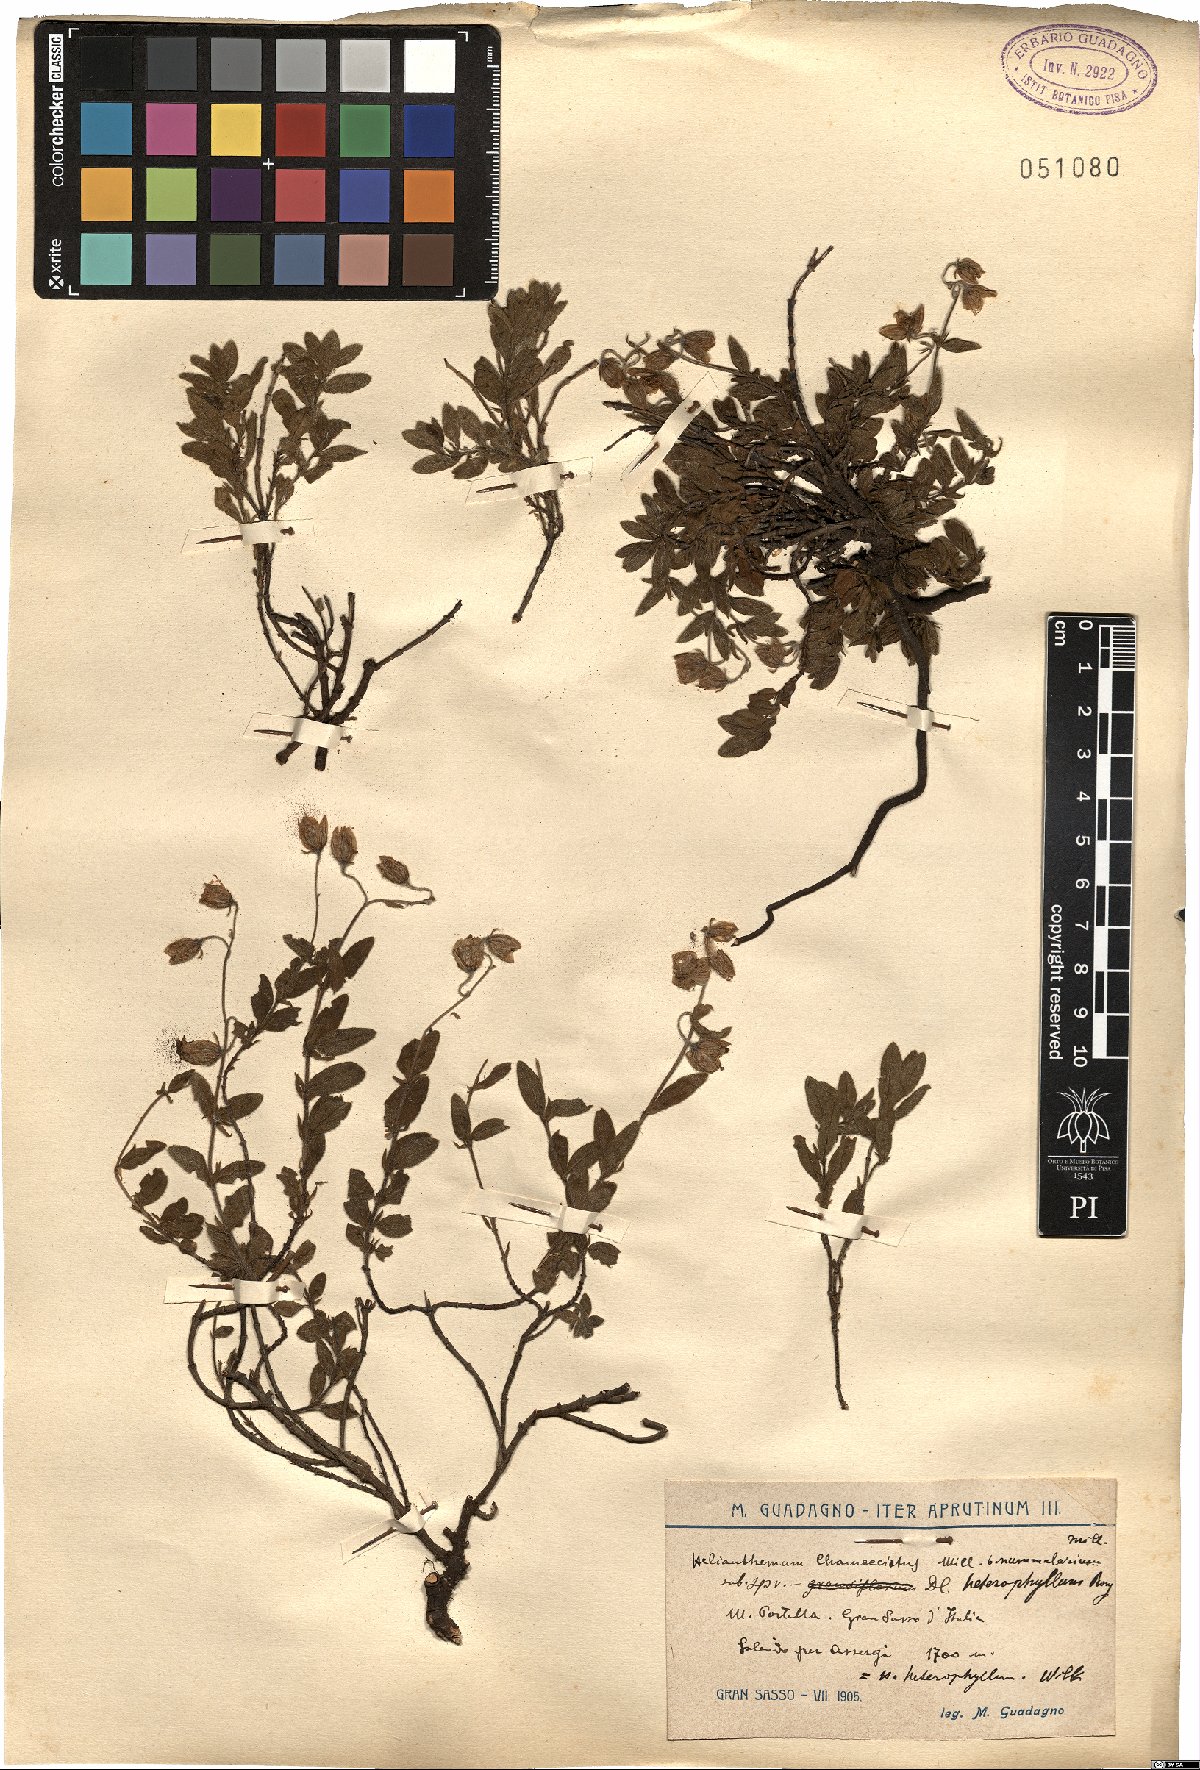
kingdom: Plantae
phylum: Tracheophyta
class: Magnoliopsida
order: Malvales
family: Cistaceae
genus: Helianthemum
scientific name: Helianthemum nummularium
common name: Common rock-rose
